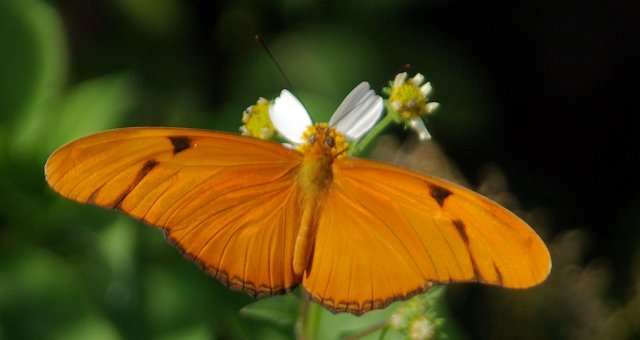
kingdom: Animalia
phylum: Arthropoda
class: Insecta
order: Lepidoptera
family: Nymphalidae
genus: Dryas
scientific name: Dryas iulia
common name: Julia
